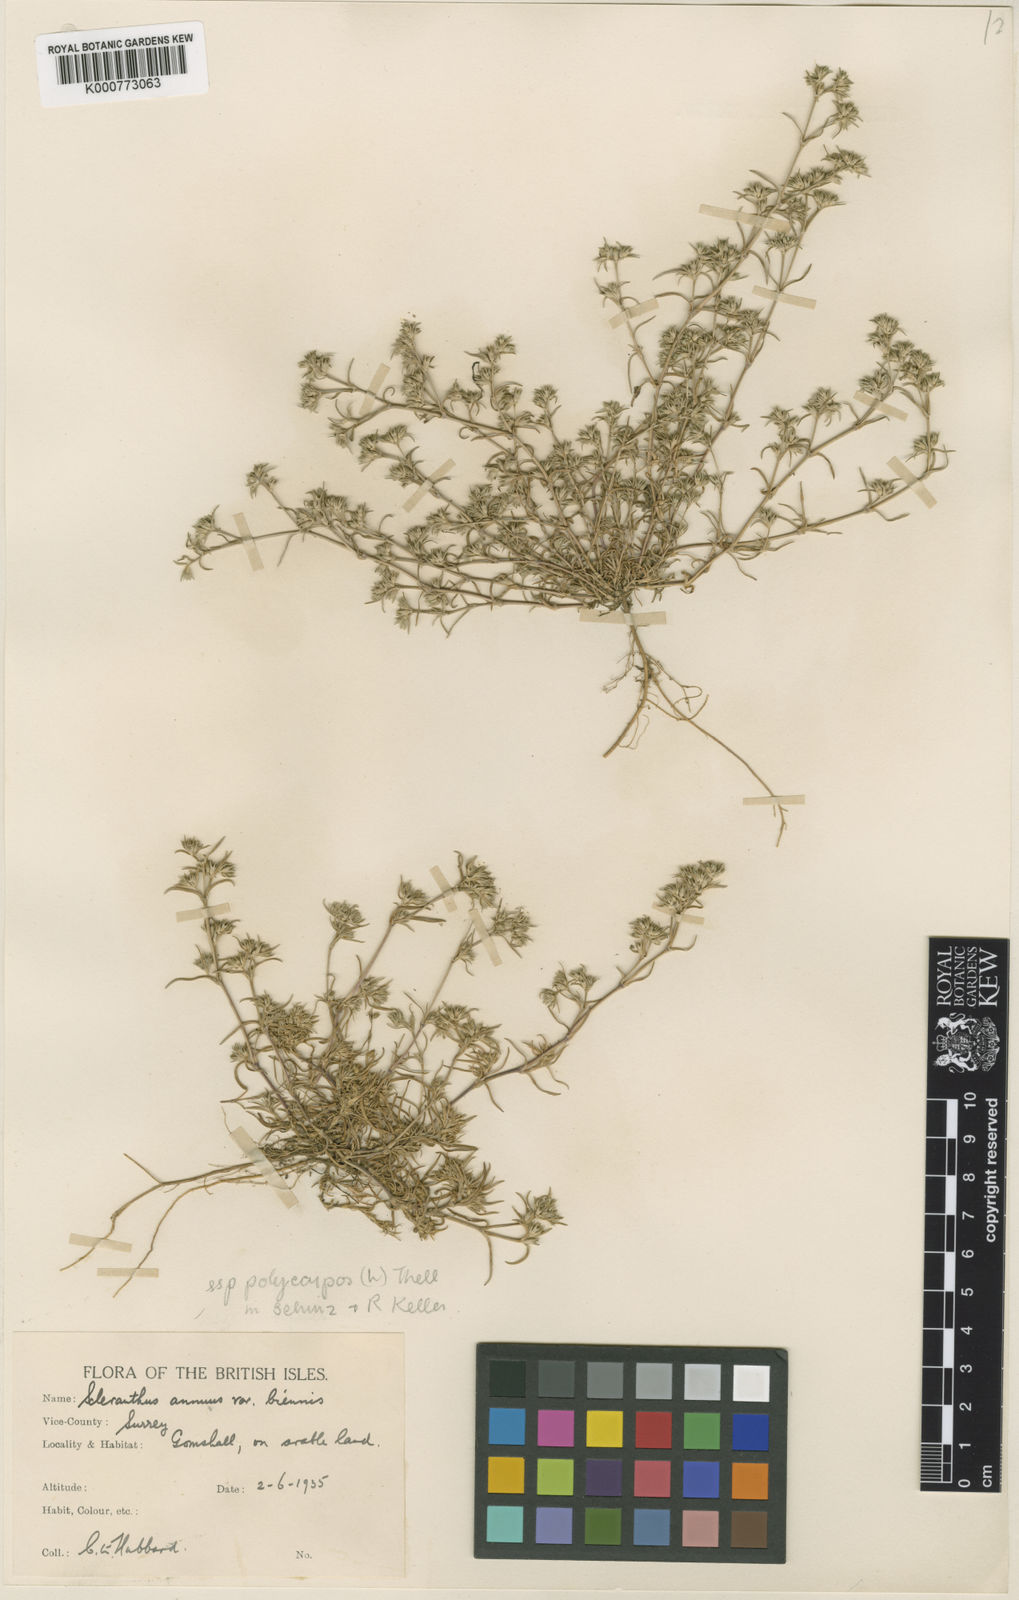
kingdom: Plantae
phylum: Tracheophyta
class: Magnoliopsida
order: Caryophyllales
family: Caryophyllaceae
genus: Scleranthus
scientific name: Scleranthus annuus
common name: Annual knawel
